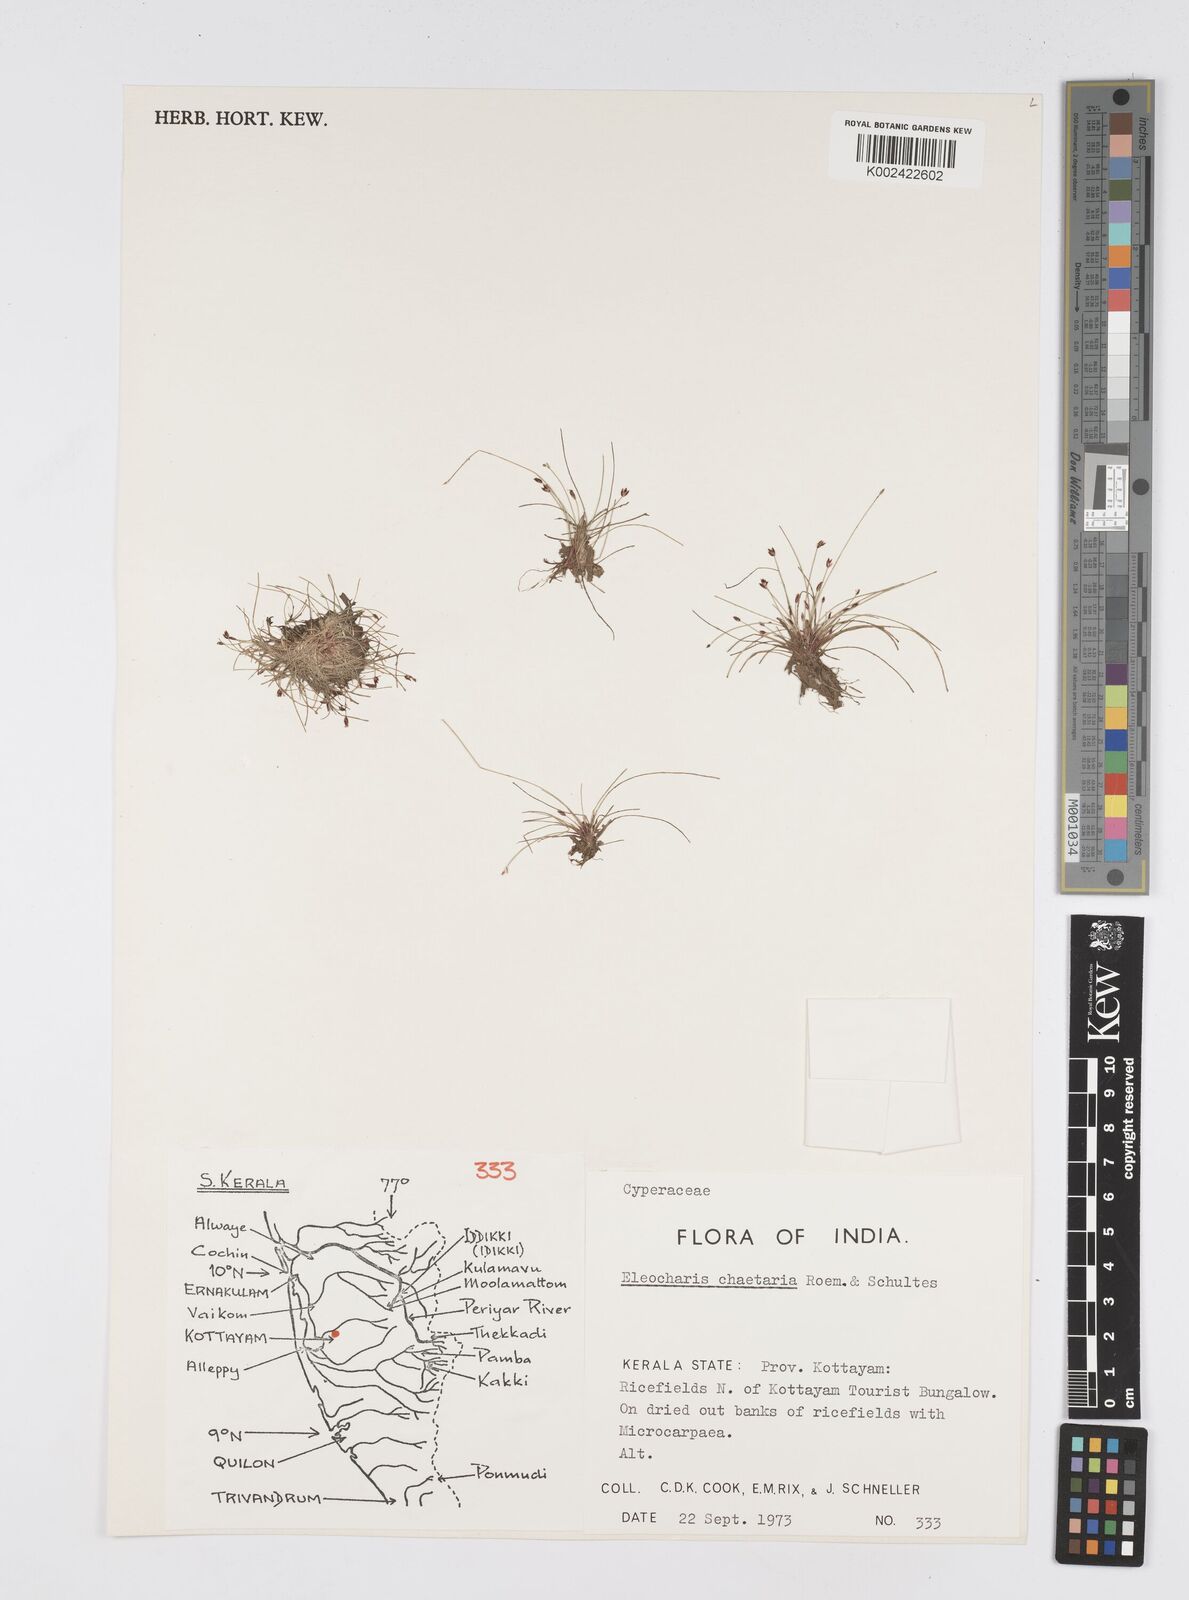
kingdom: Plantae
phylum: Tracheophyta
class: Liliopsida
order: Poales
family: Cyperaceae
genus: Eleocharis
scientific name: Eleocharis retroflexa
